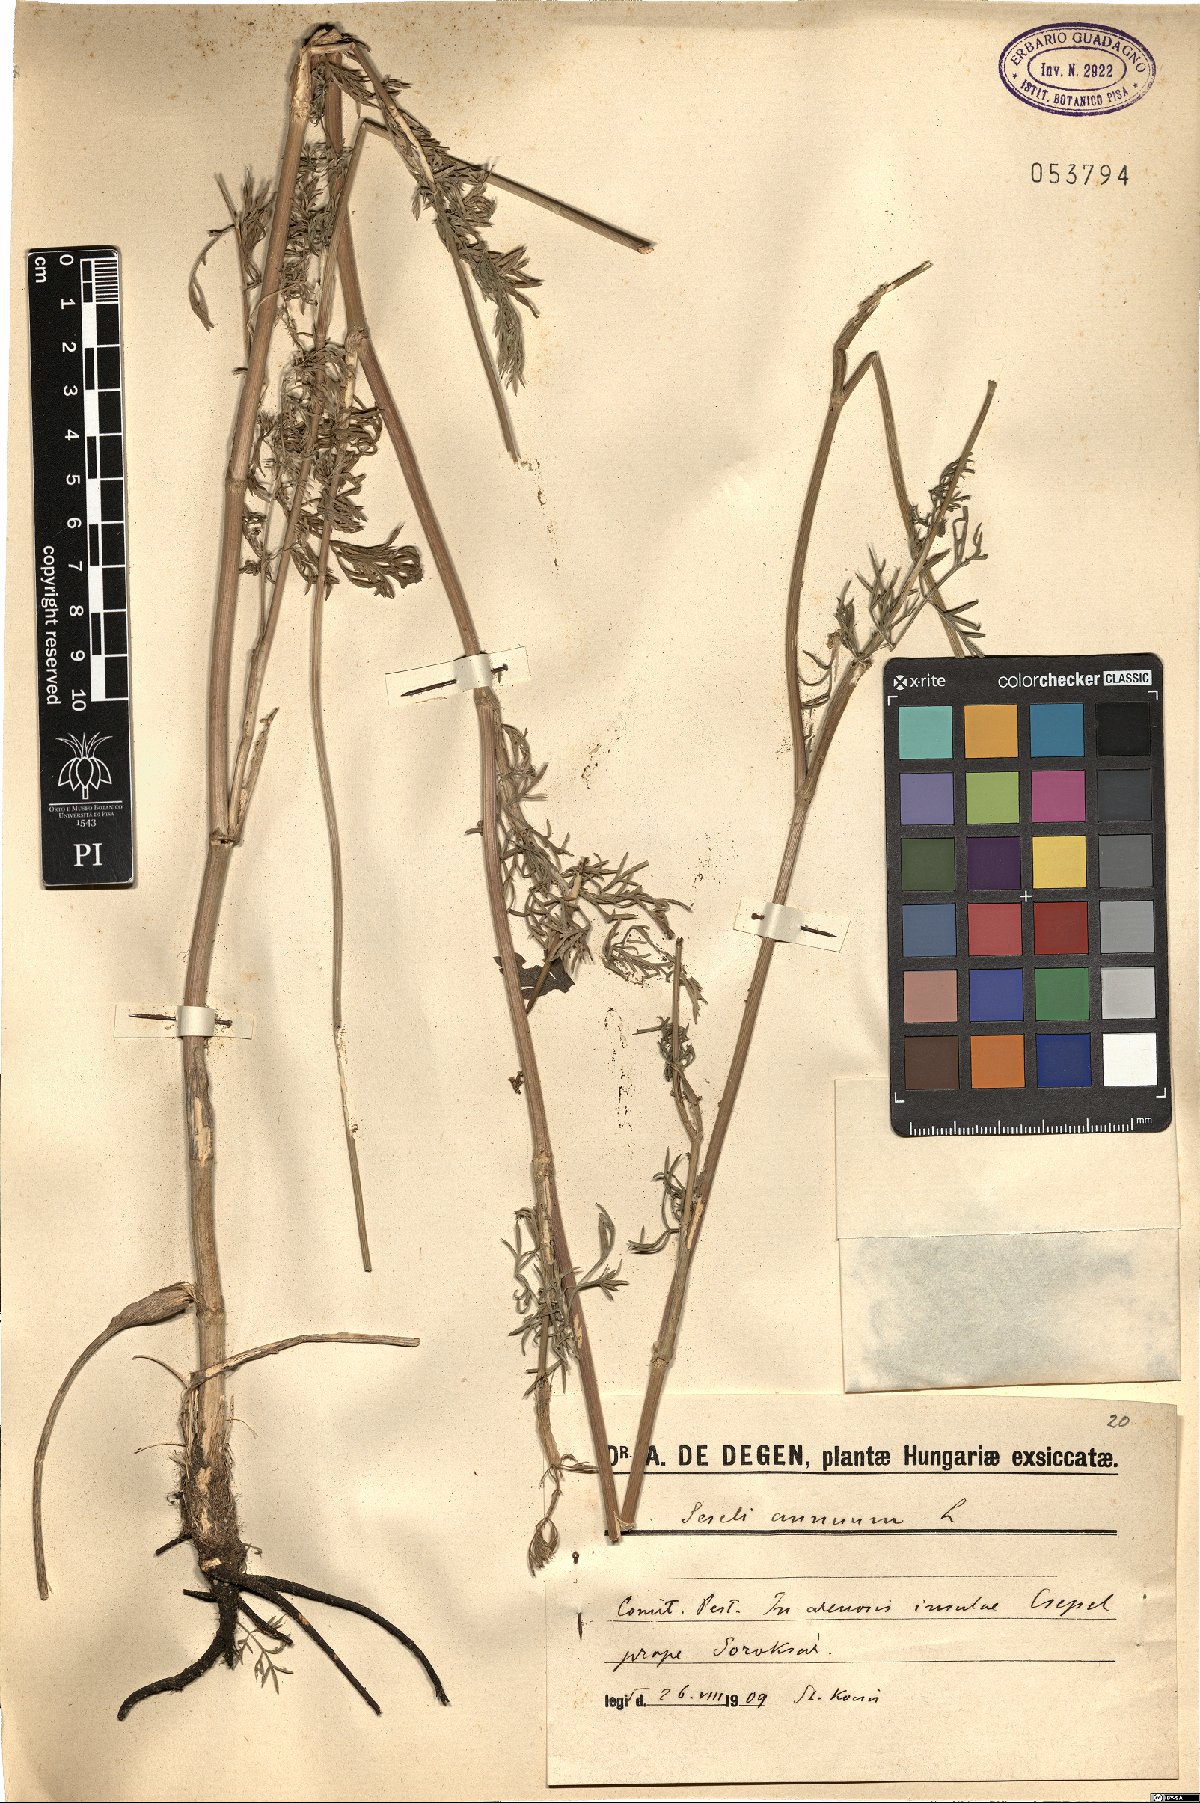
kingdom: Plantae
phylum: Tracheophyta
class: Magnoliopsida
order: Apiales
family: Apiaceae
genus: Seseli
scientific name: Seseli annuum
